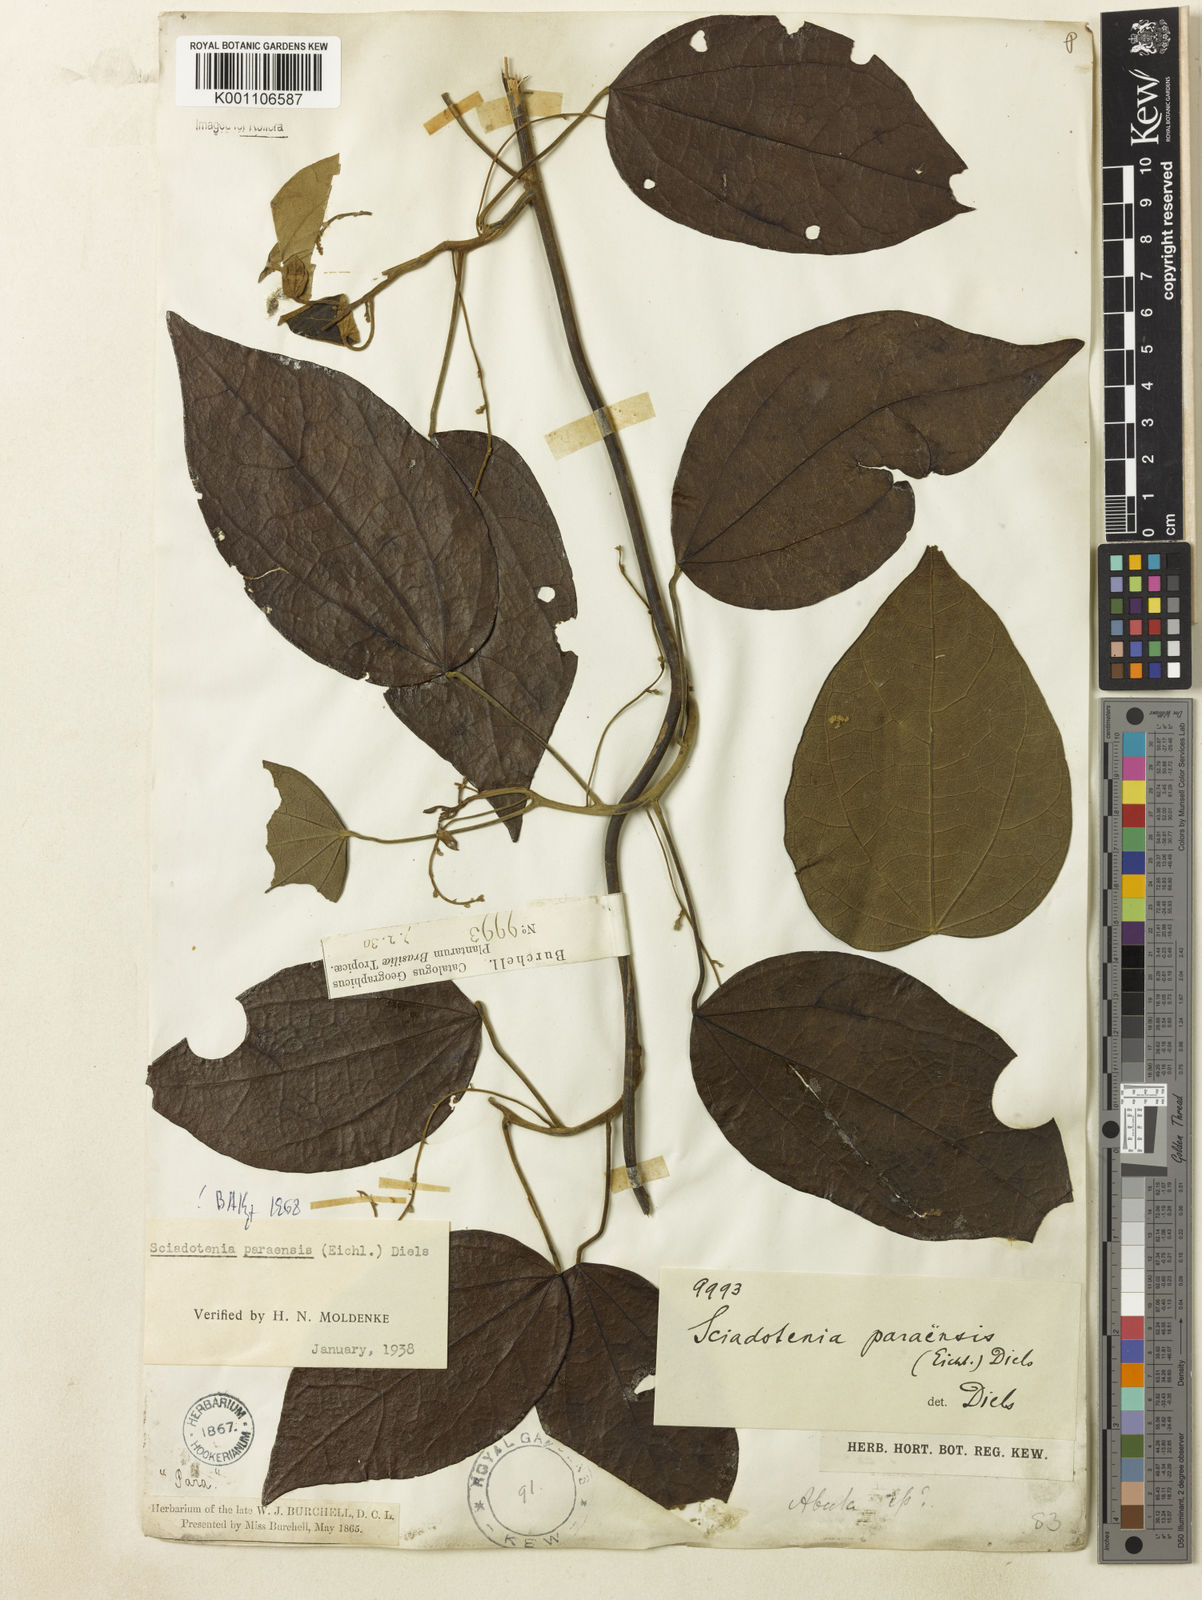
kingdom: Plantae
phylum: Tracheophyta
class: Magnoliopsida
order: Ranunculales
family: Menispermaceae
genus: Sciadotenia
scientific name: Sciadotenia paraensis
